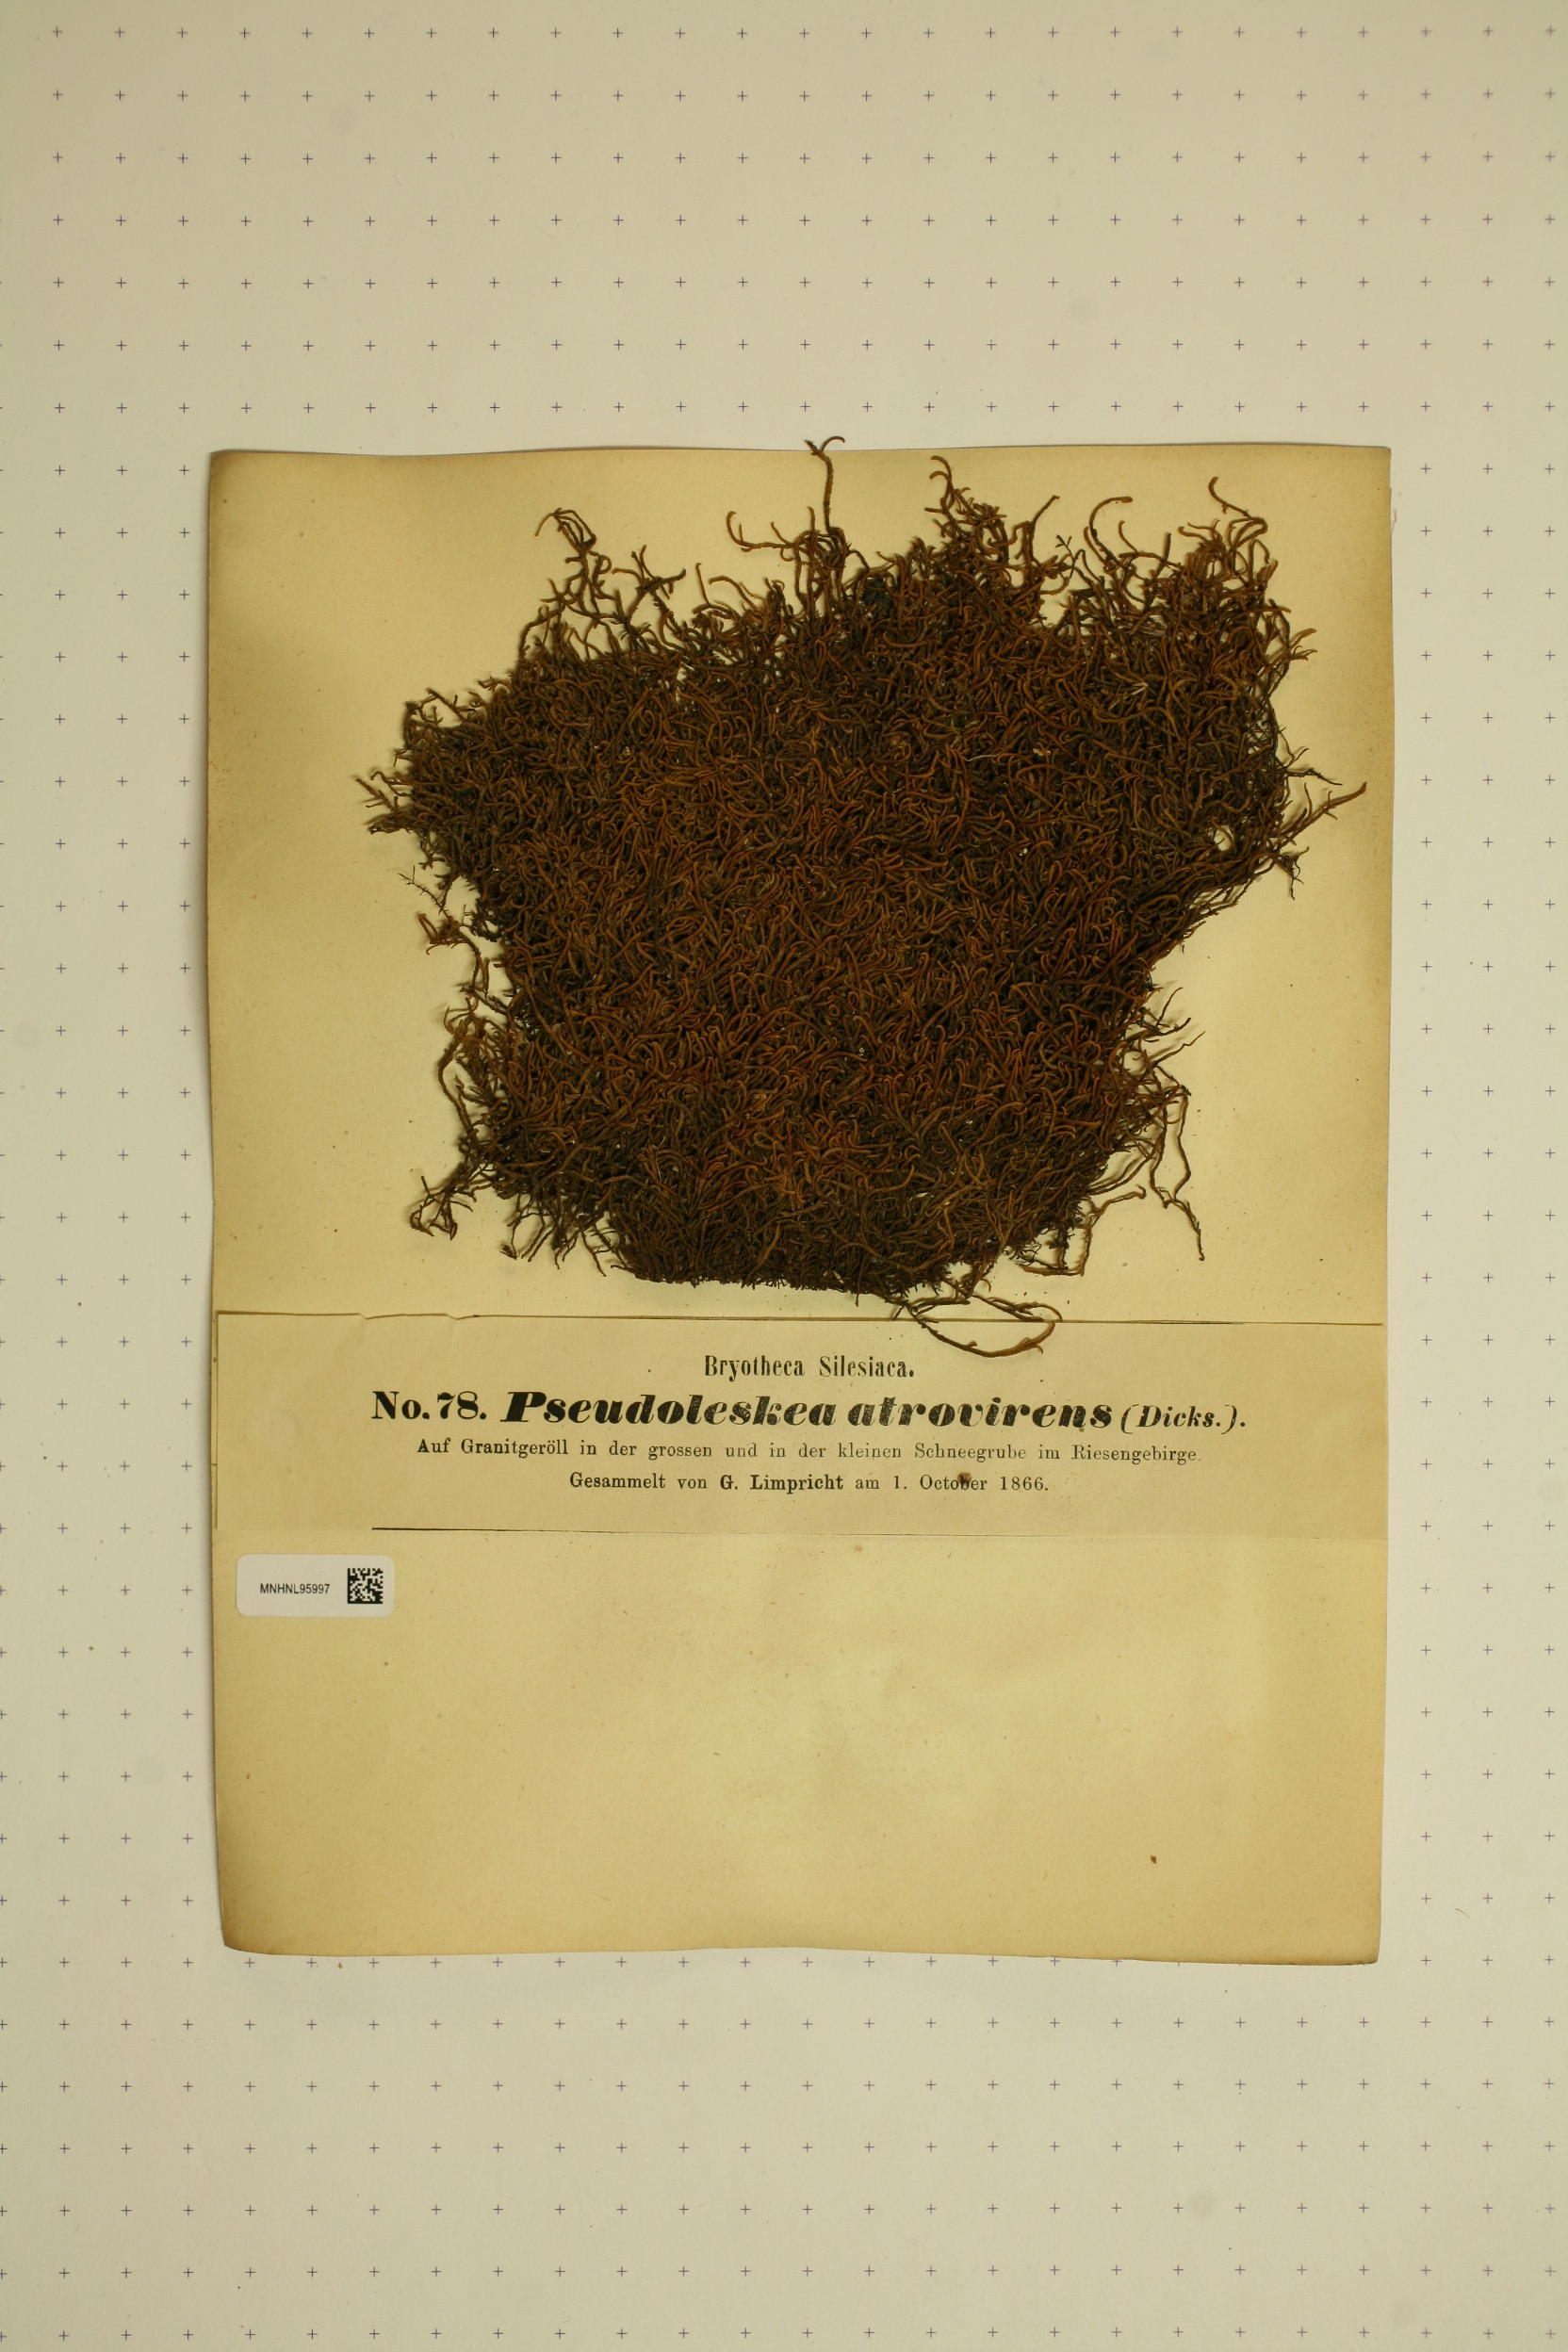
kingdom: Plantae
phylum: Bryophyta
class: Bryopsida
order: Hypnales
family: Pseudoleskeaceae
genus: Lescuraea
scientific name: Lescuraea incurvata
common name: Brown mountain leskea
